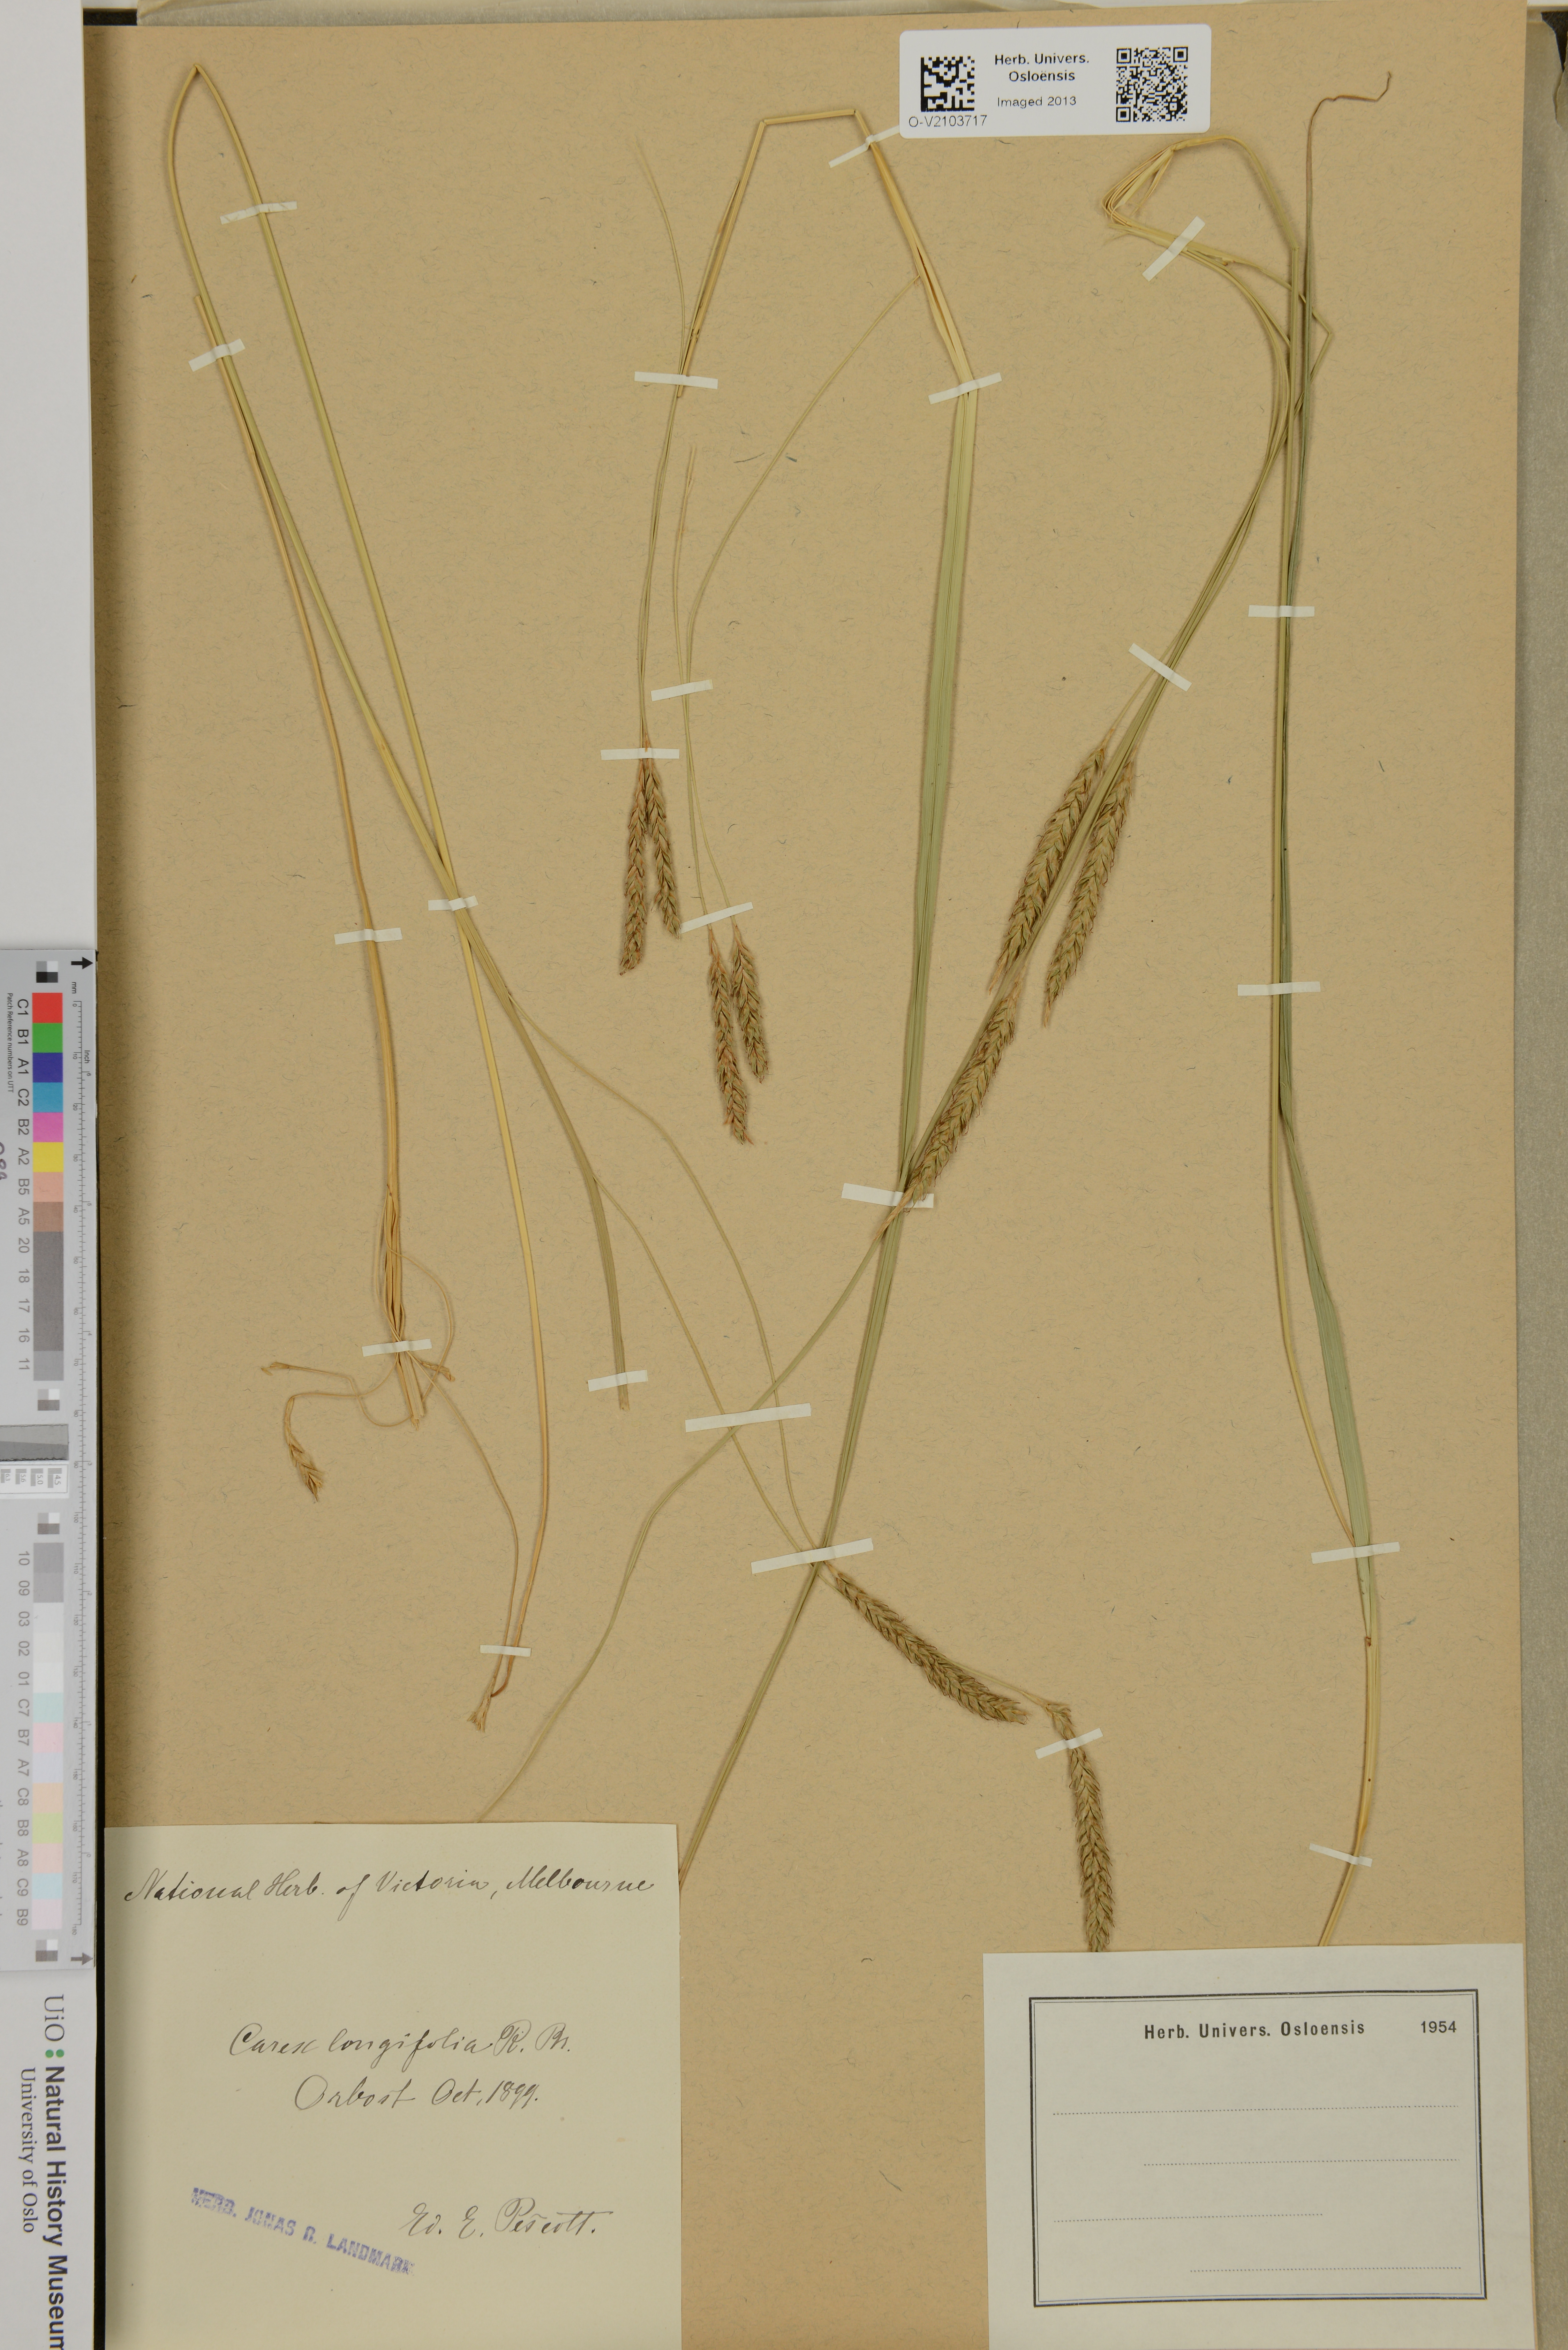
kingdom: Plantae
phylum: Tracheophyta
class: Liliopsida
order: Poales
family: Cyperaceae
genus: Carex
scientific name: Carex
